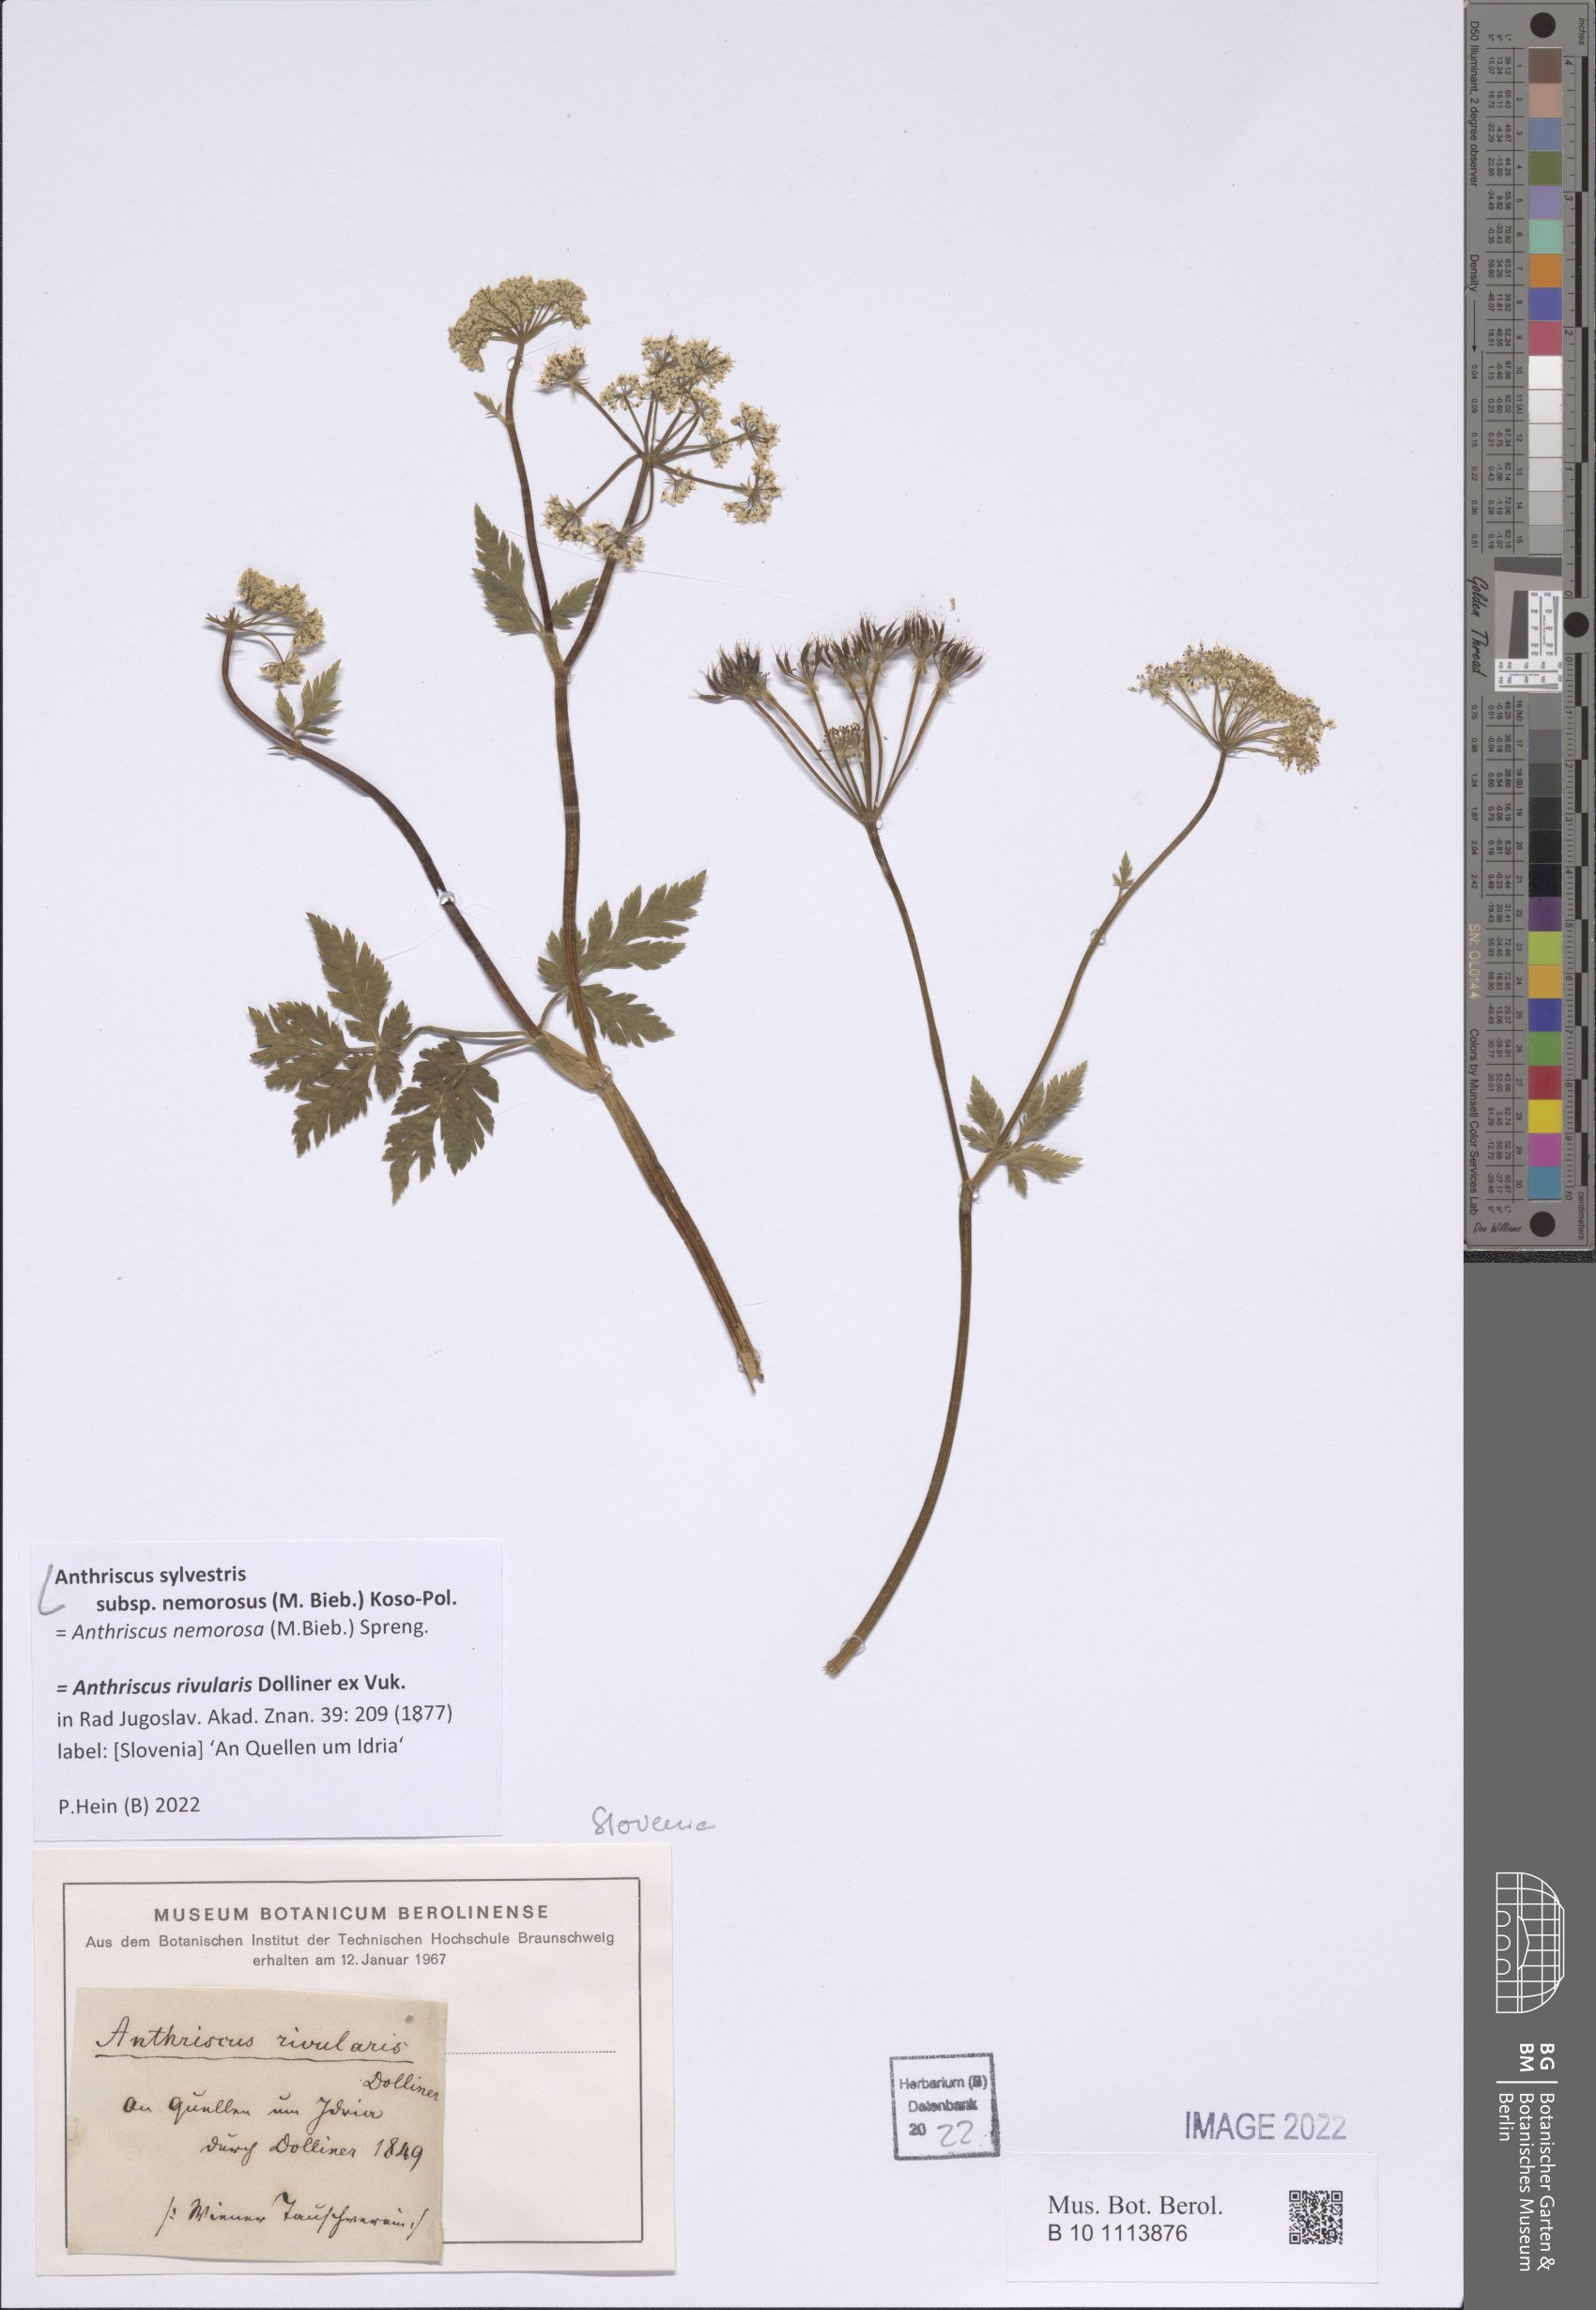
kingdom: Plantae
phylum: Tracheophyta
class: Magnoliopsida
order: Apiales
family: Apiaceae
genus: Anthriscus
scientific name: Anthriscus sylvestris
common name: Cow parsley
